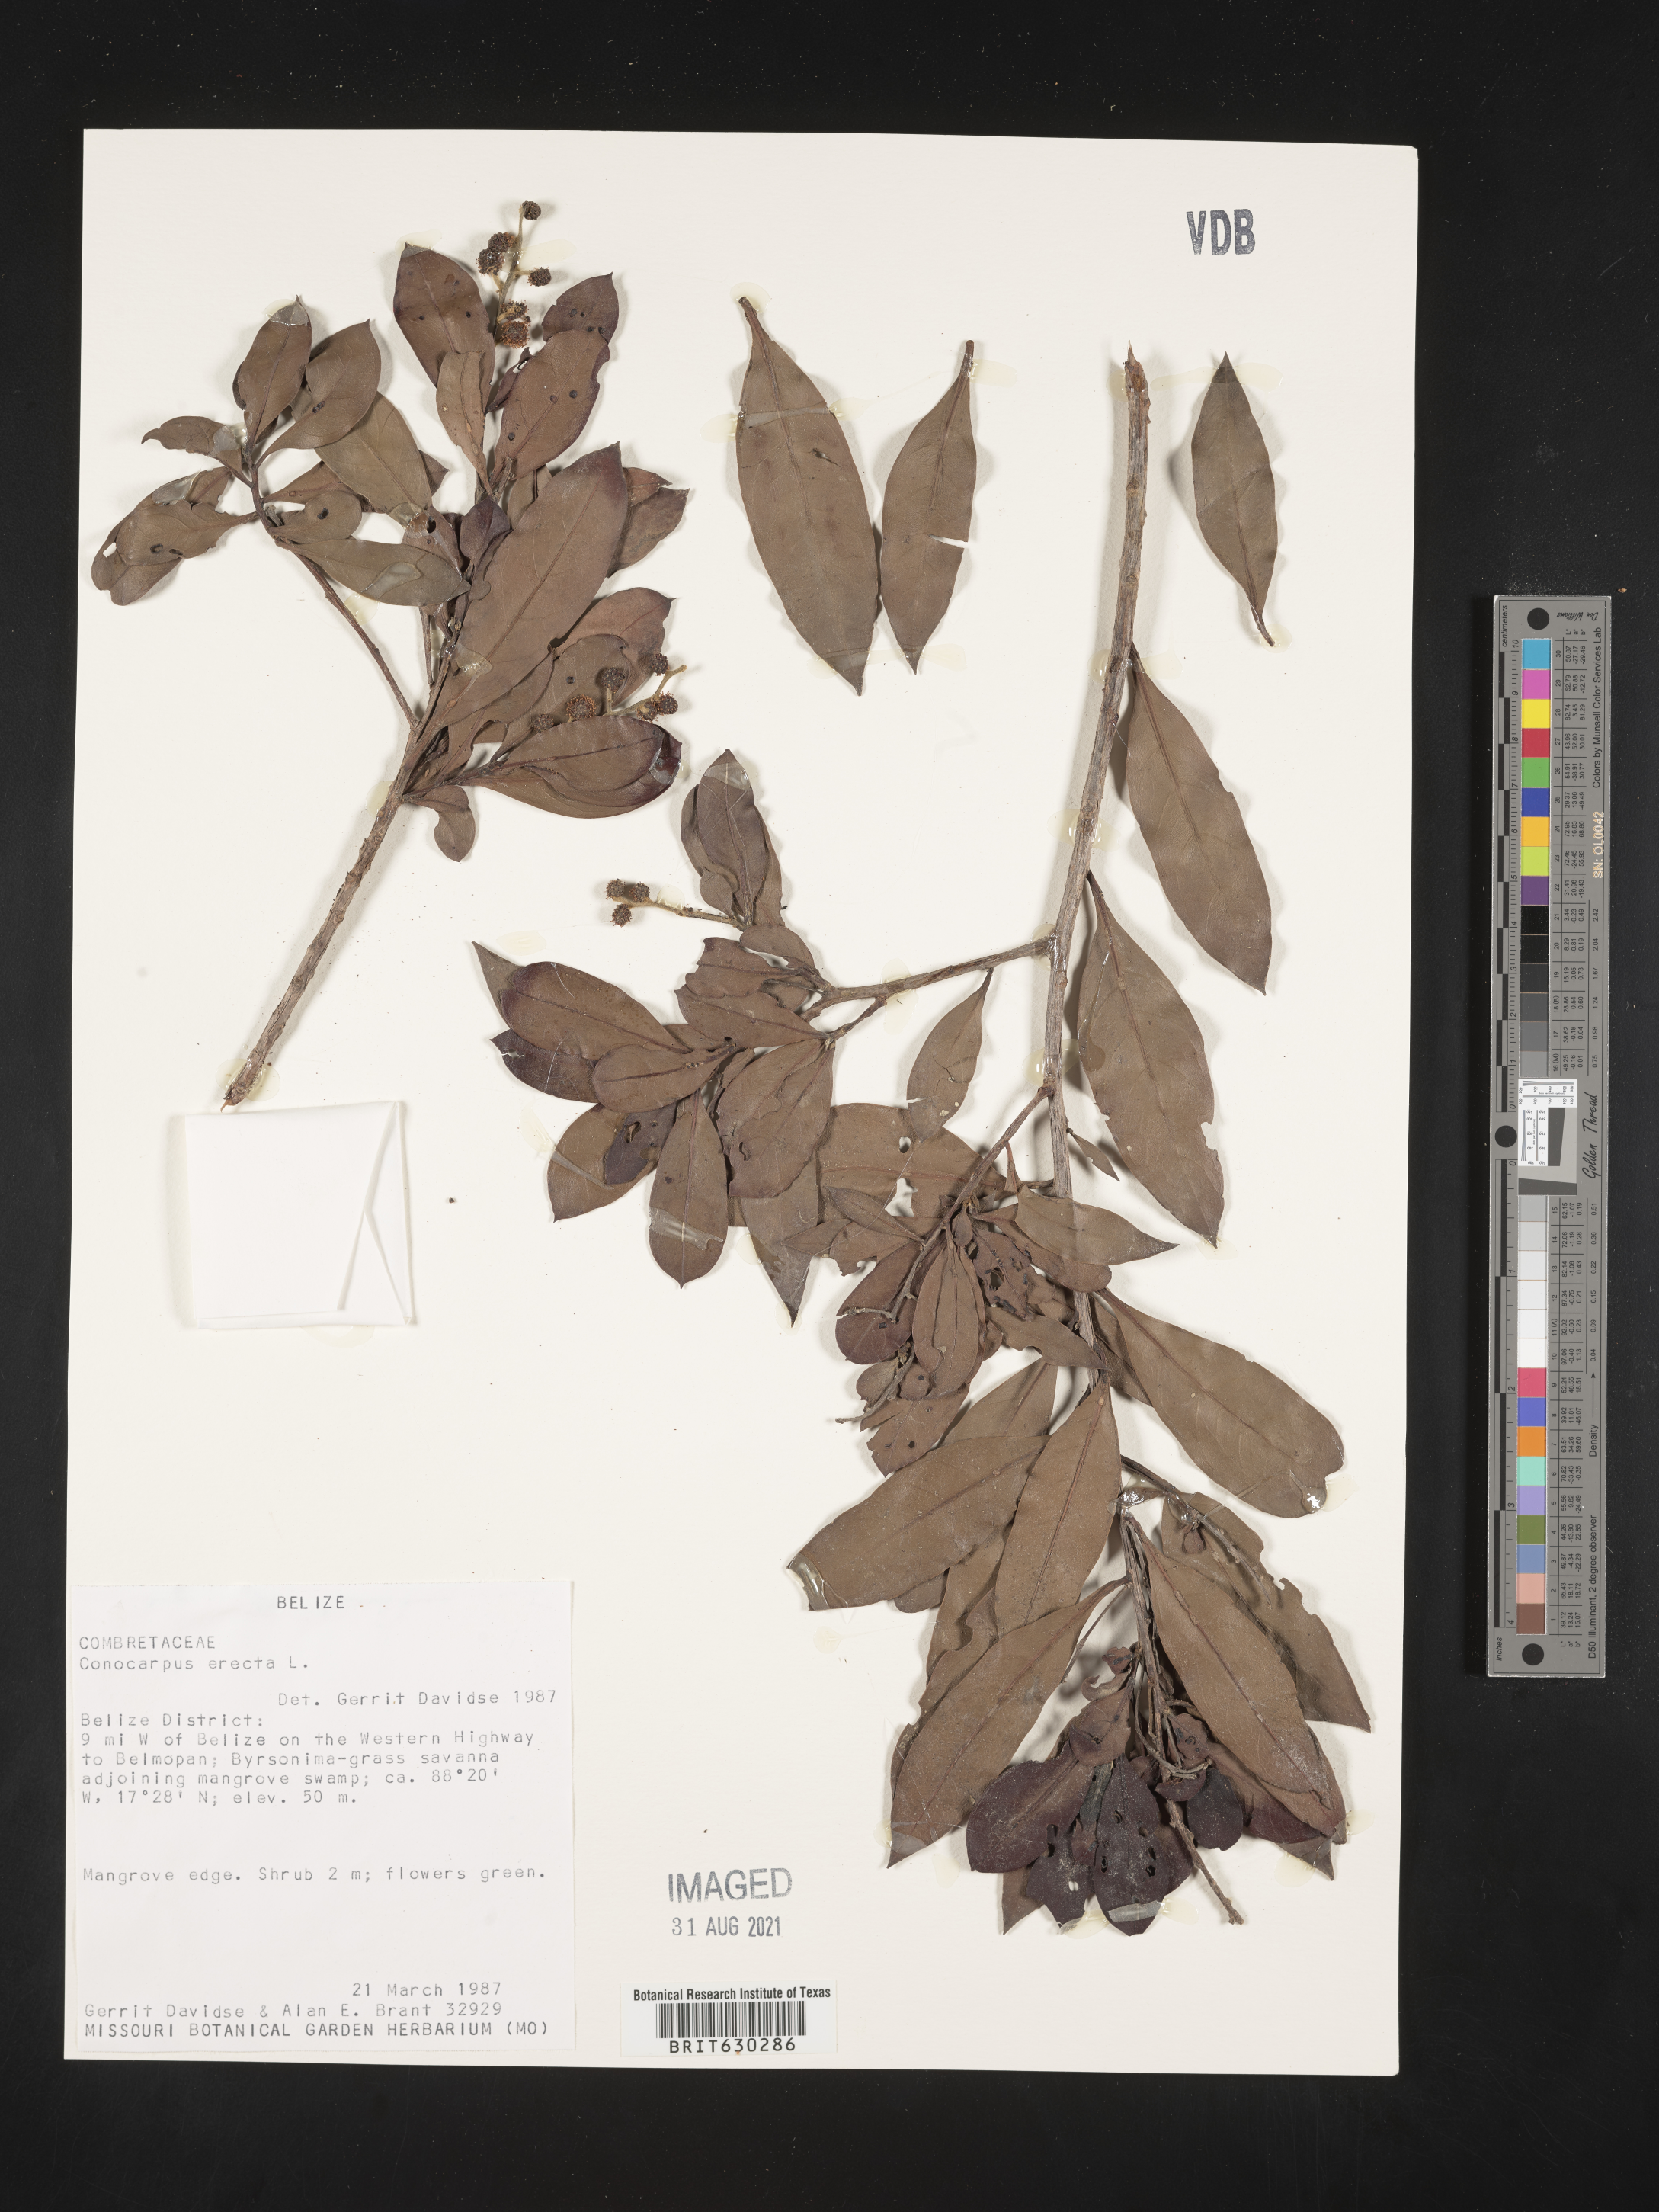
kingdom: Plantae
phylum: Tracheophyta
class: Magnoliopsida
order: Myrtales
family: Combretaceae
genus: Conocarpus
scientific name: Conocarpus erectus
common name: Button mangrove
